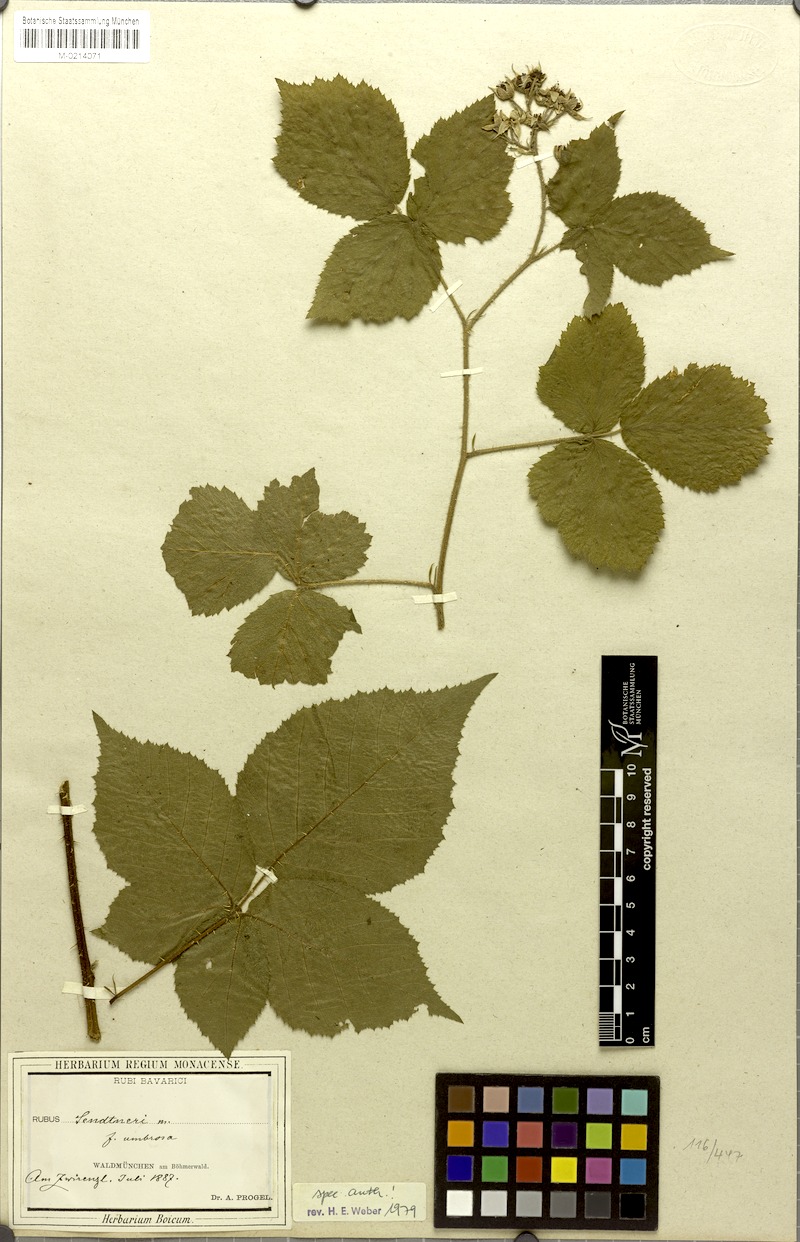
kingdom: Plantae
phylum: Tracheophyta
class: Magnoliopsida
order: Rosales
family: Rosaceae
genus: Rubus
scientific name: Rubus sendtneri
